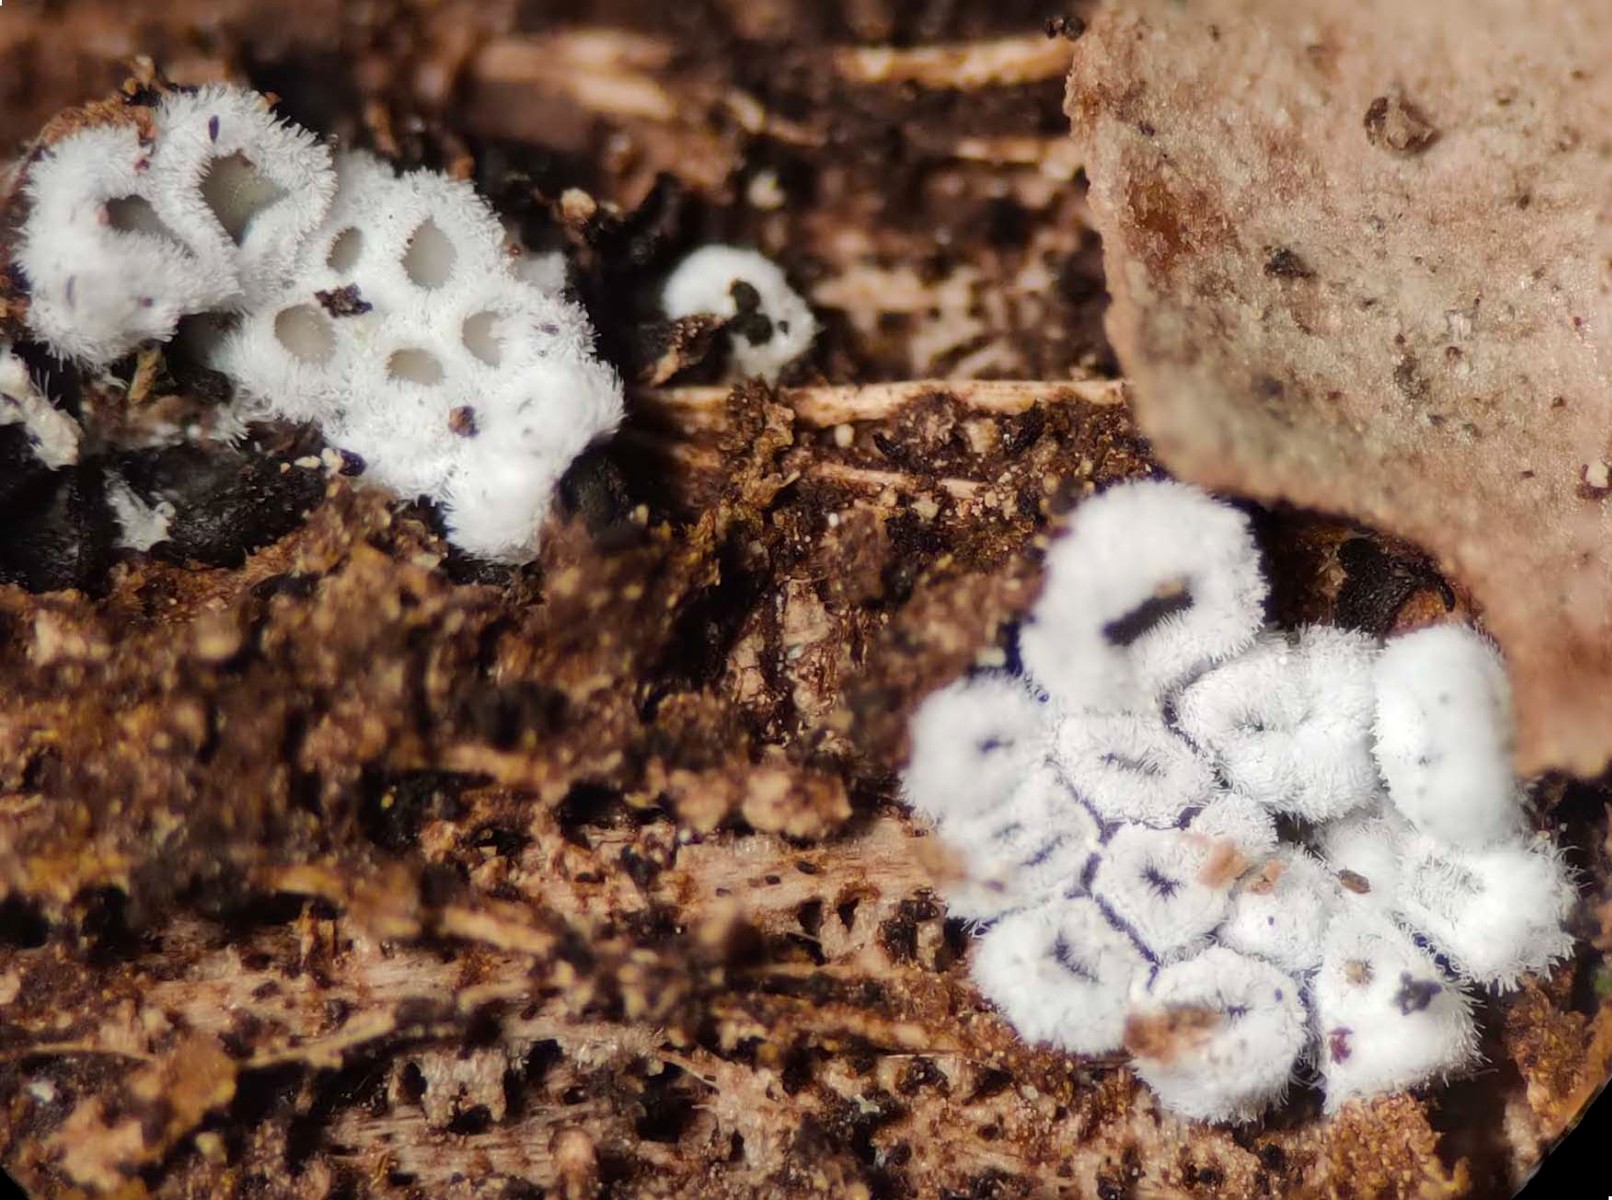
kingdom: Fungi
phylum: Basidiomycota
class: Agaricomycetes
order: Agaricales
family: Niaceae
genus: Lachnella
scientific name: Lachnella alboviolascens
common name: grå frynserede
